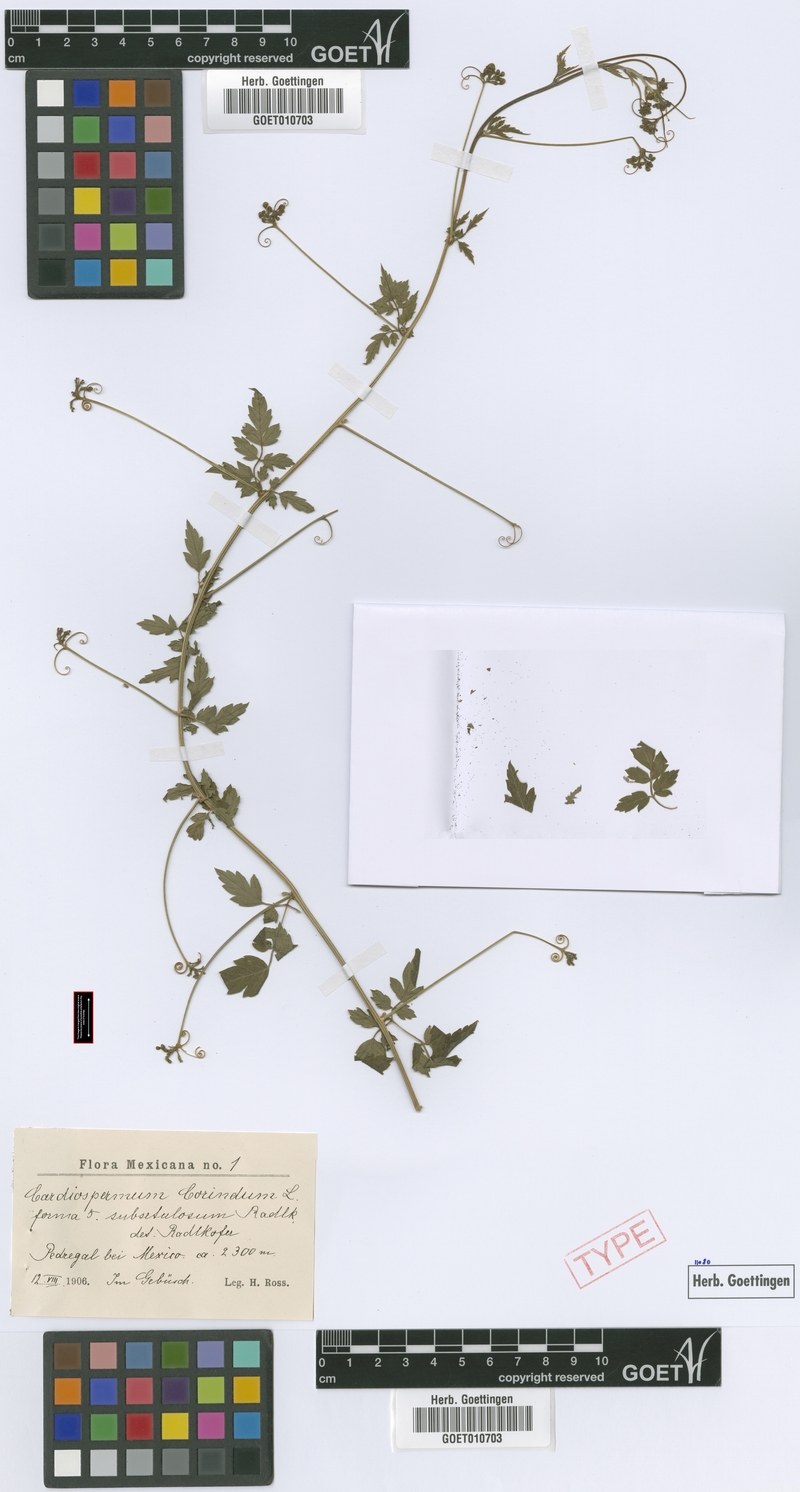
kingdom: Plantae
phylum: Tracheophyta
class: Magnoliopsida
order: Sapindales
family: Sapindaceae
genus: Cardiospermum
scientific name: Cardiospermum corindum
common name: Faux persil
